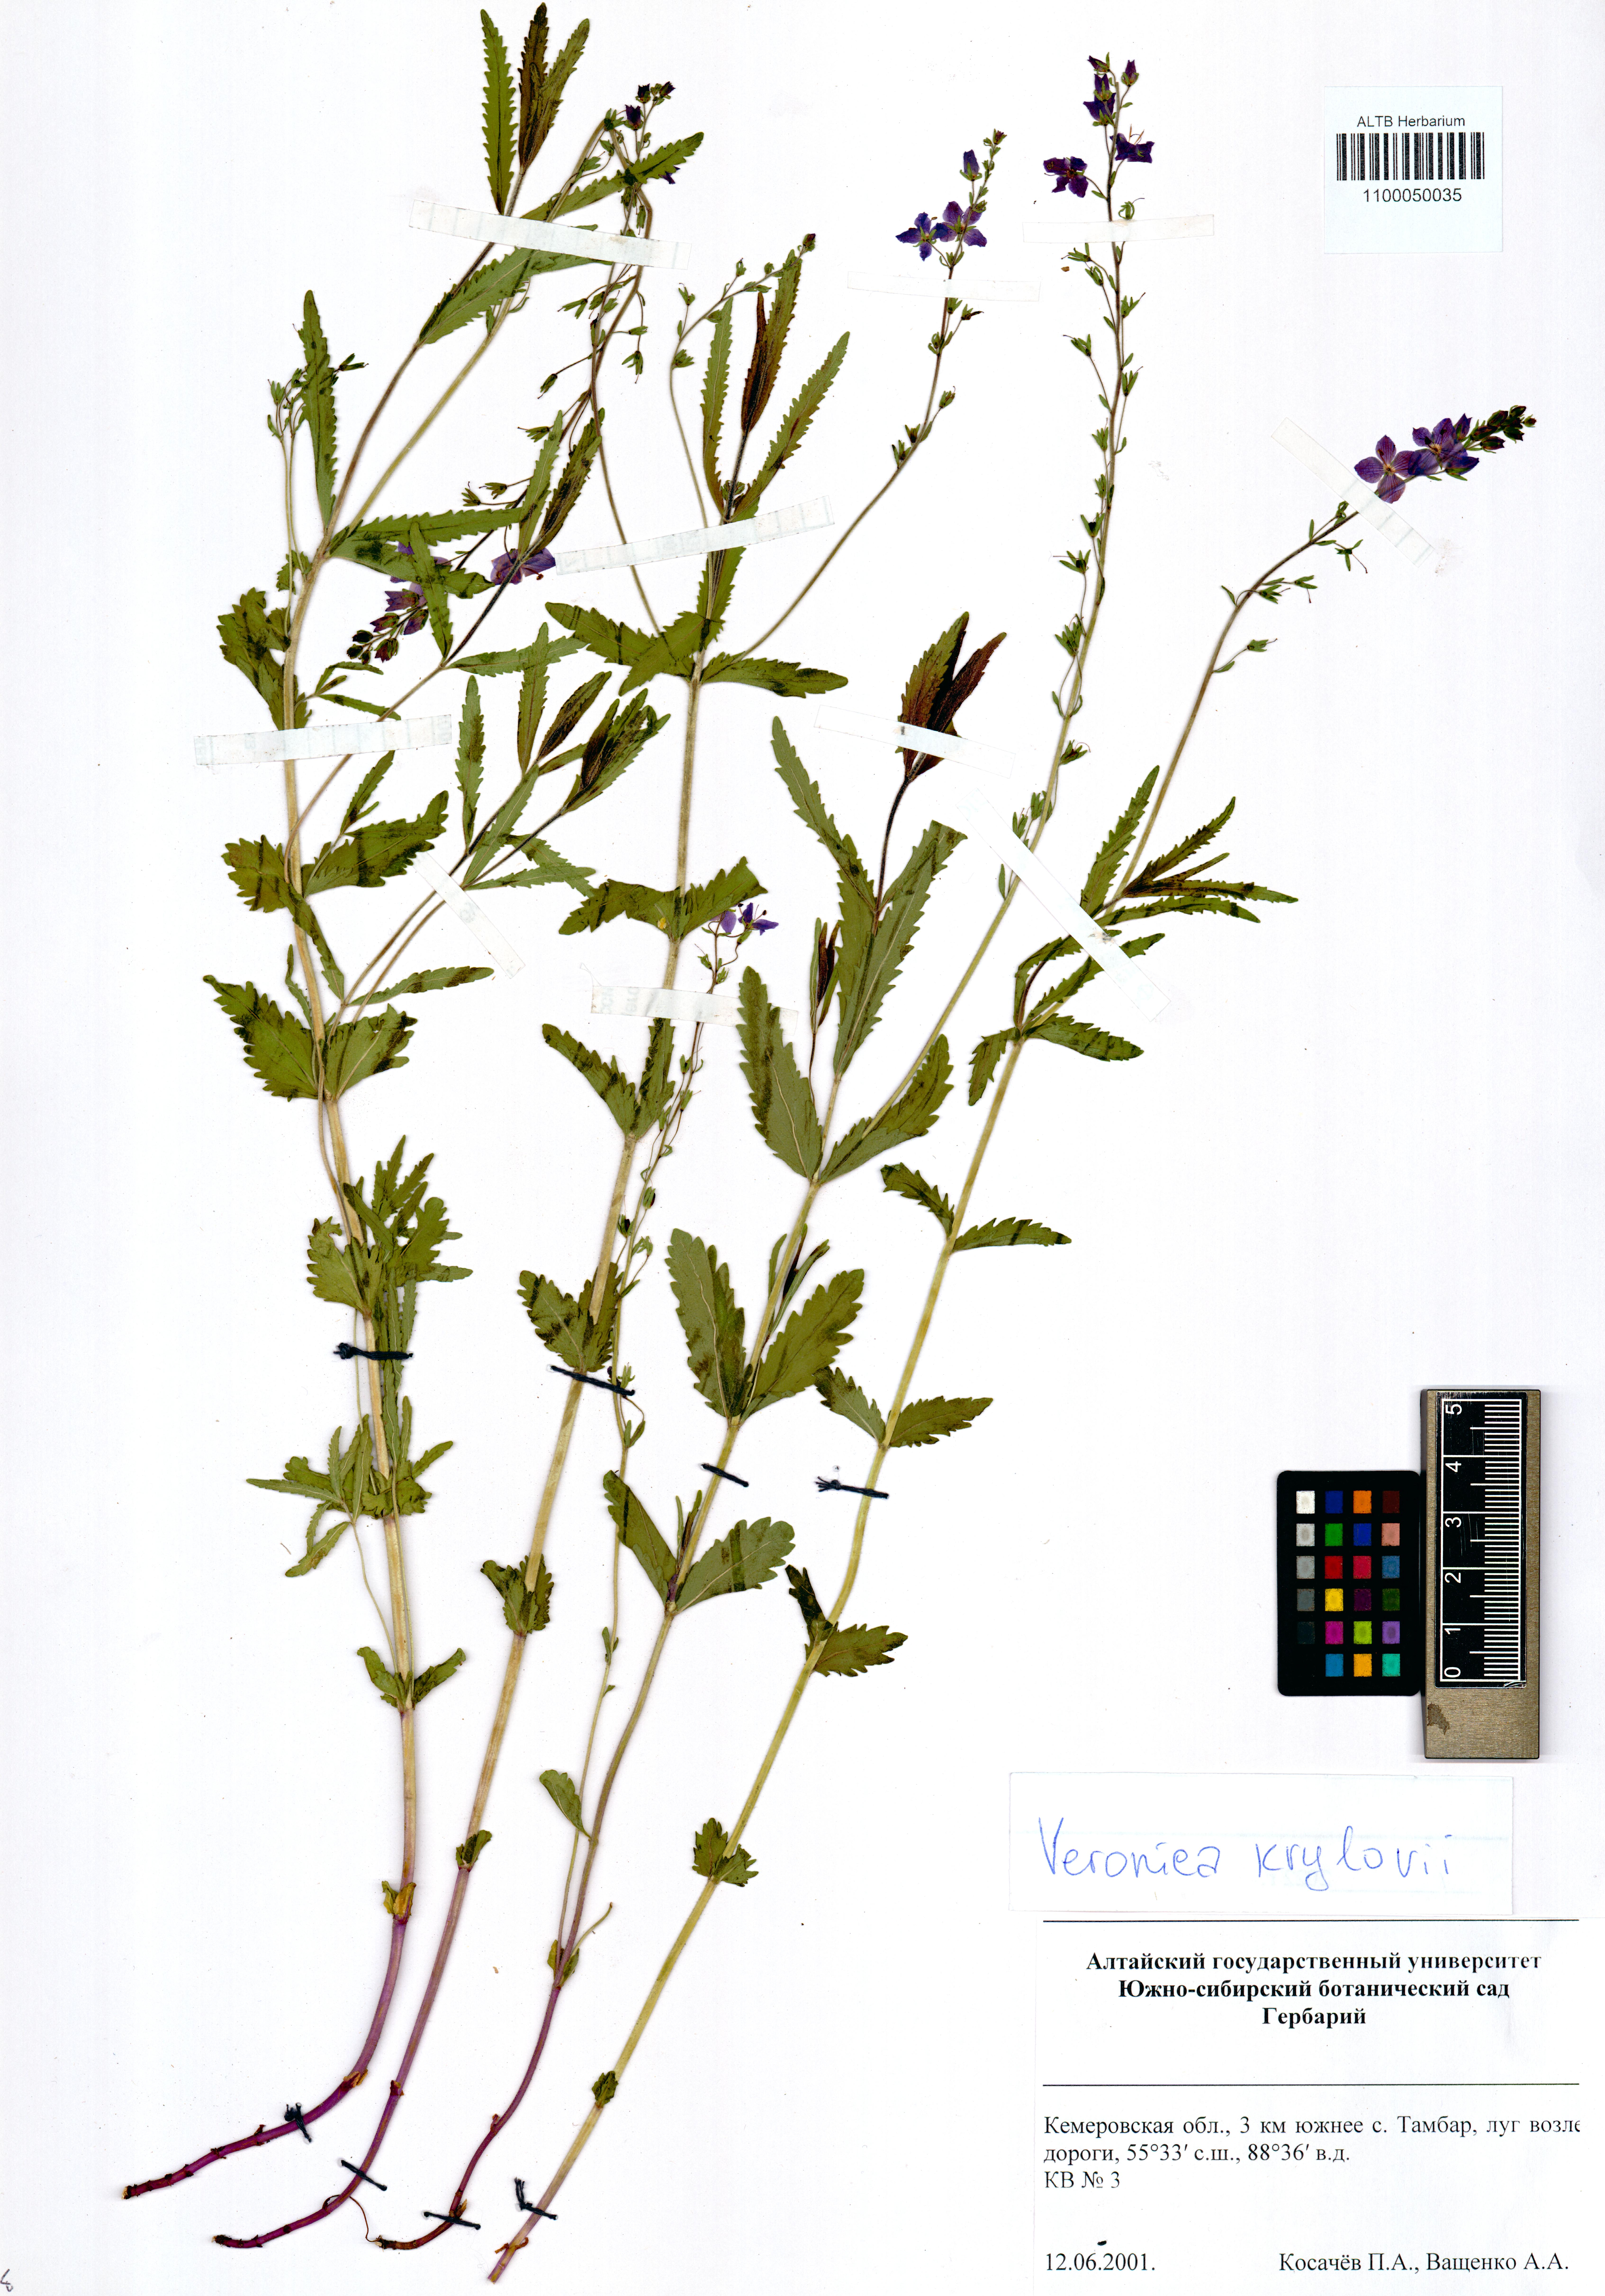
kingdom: Plantae
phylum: Tracheophyta
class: Magnoliopsida
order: Lamiales
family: Plantaginaceae
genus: Veronica
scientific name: Veronica krylovii
